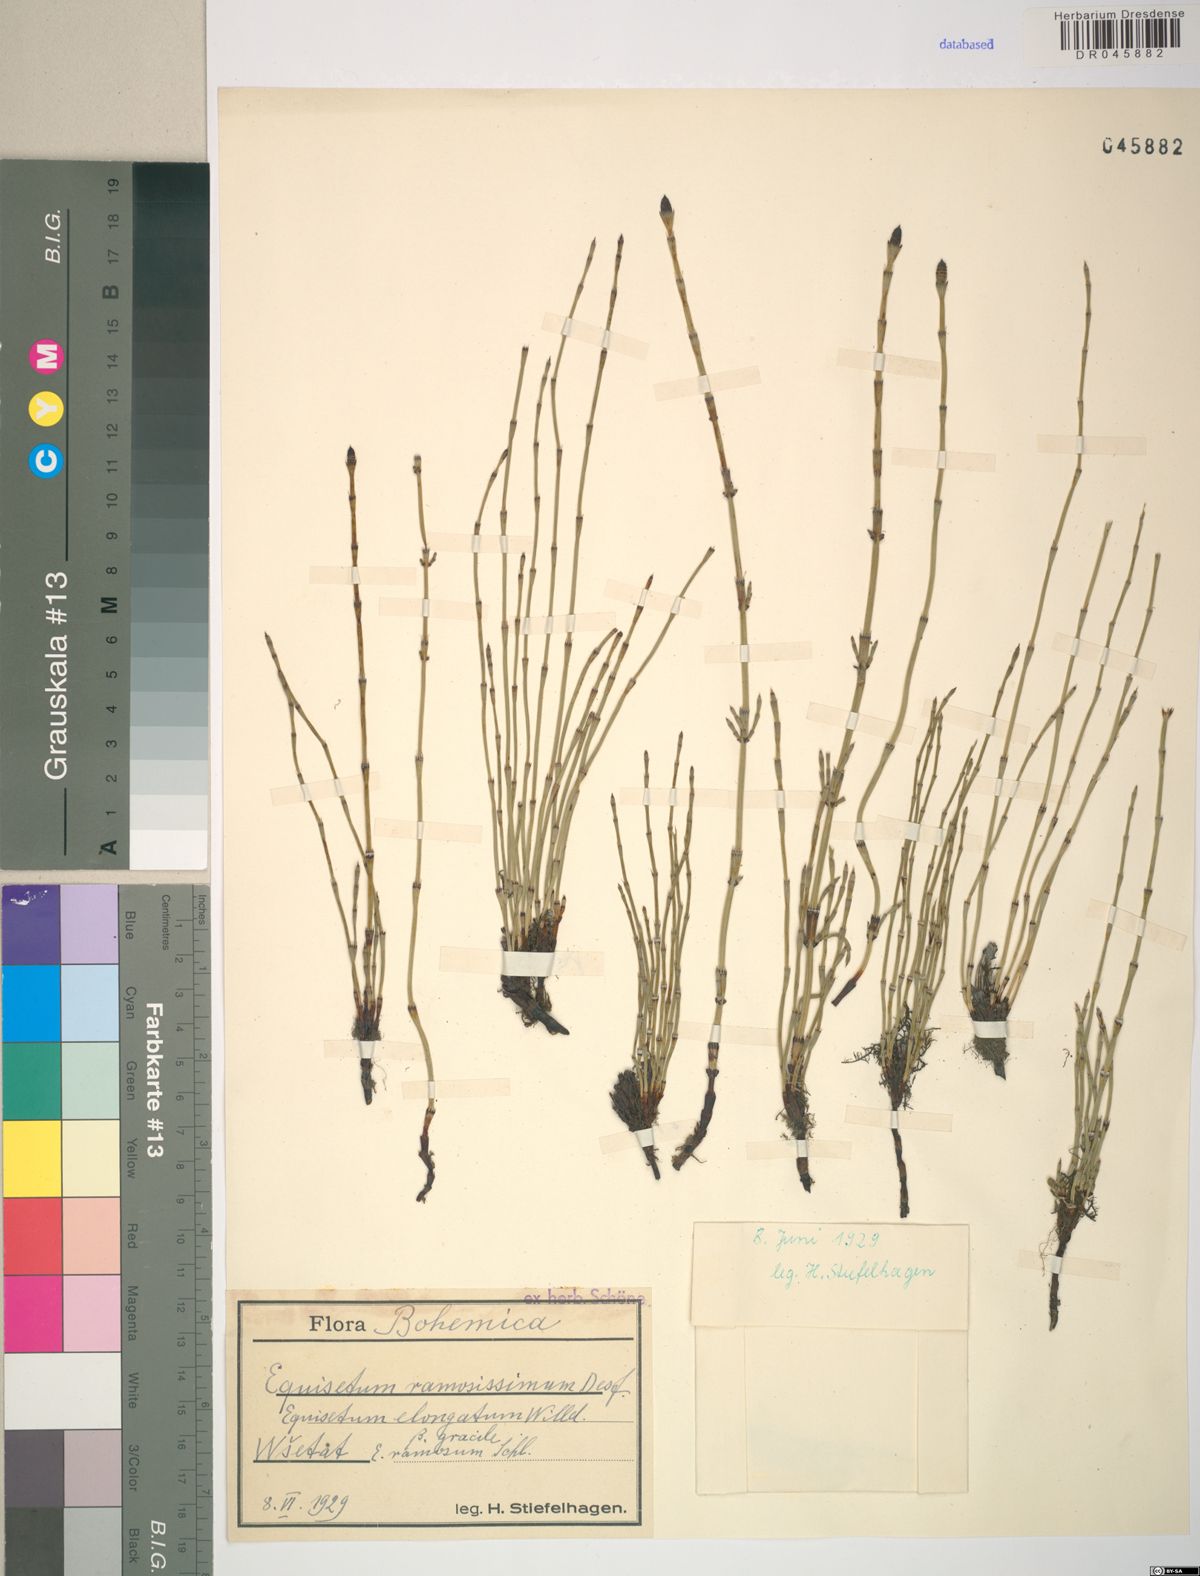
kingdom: Plantae
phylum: Tracheophyta
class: Polypodiopsida
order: Equisetales
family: Equisetaceae
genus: Equisetum
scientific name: Equisetum ramosissimum
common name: Branched horsetail
